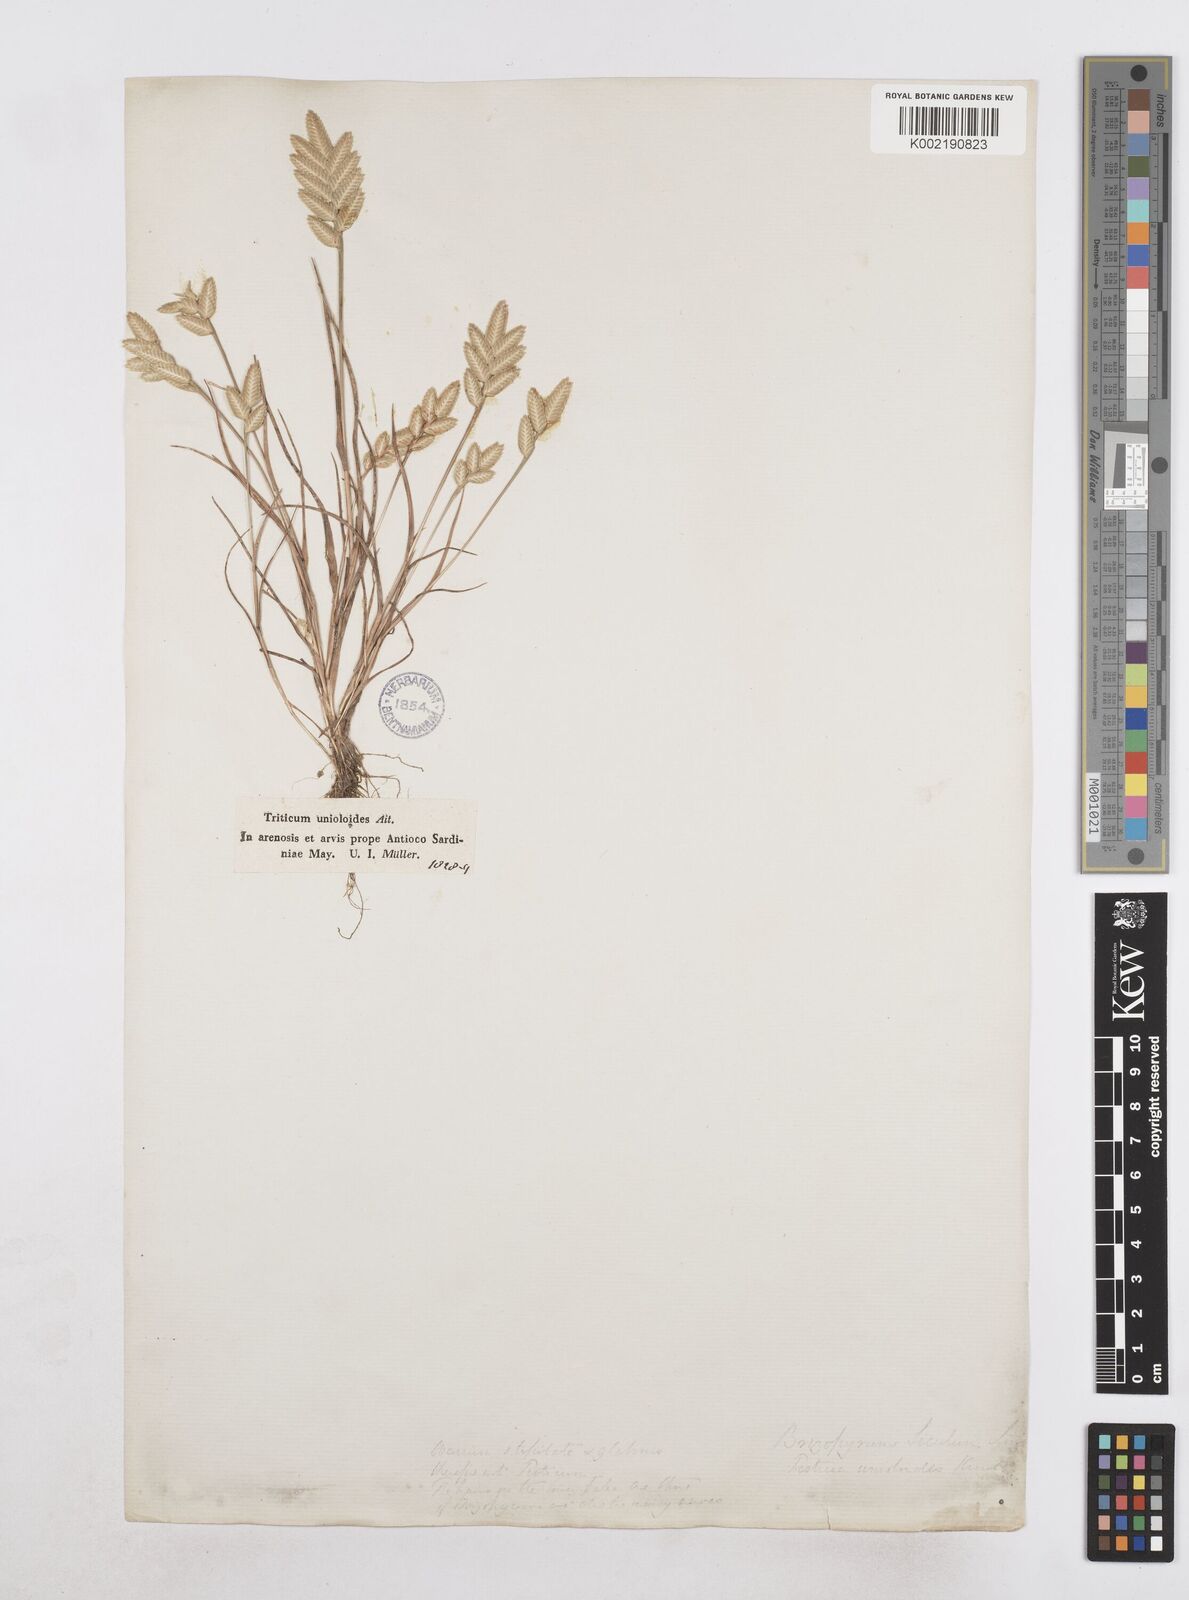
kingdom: Plantae
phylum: Tracheophyta
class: Liliopsida
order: Poales
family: Poaceae
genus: Desmazeria
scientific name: Desmazeria sicula
